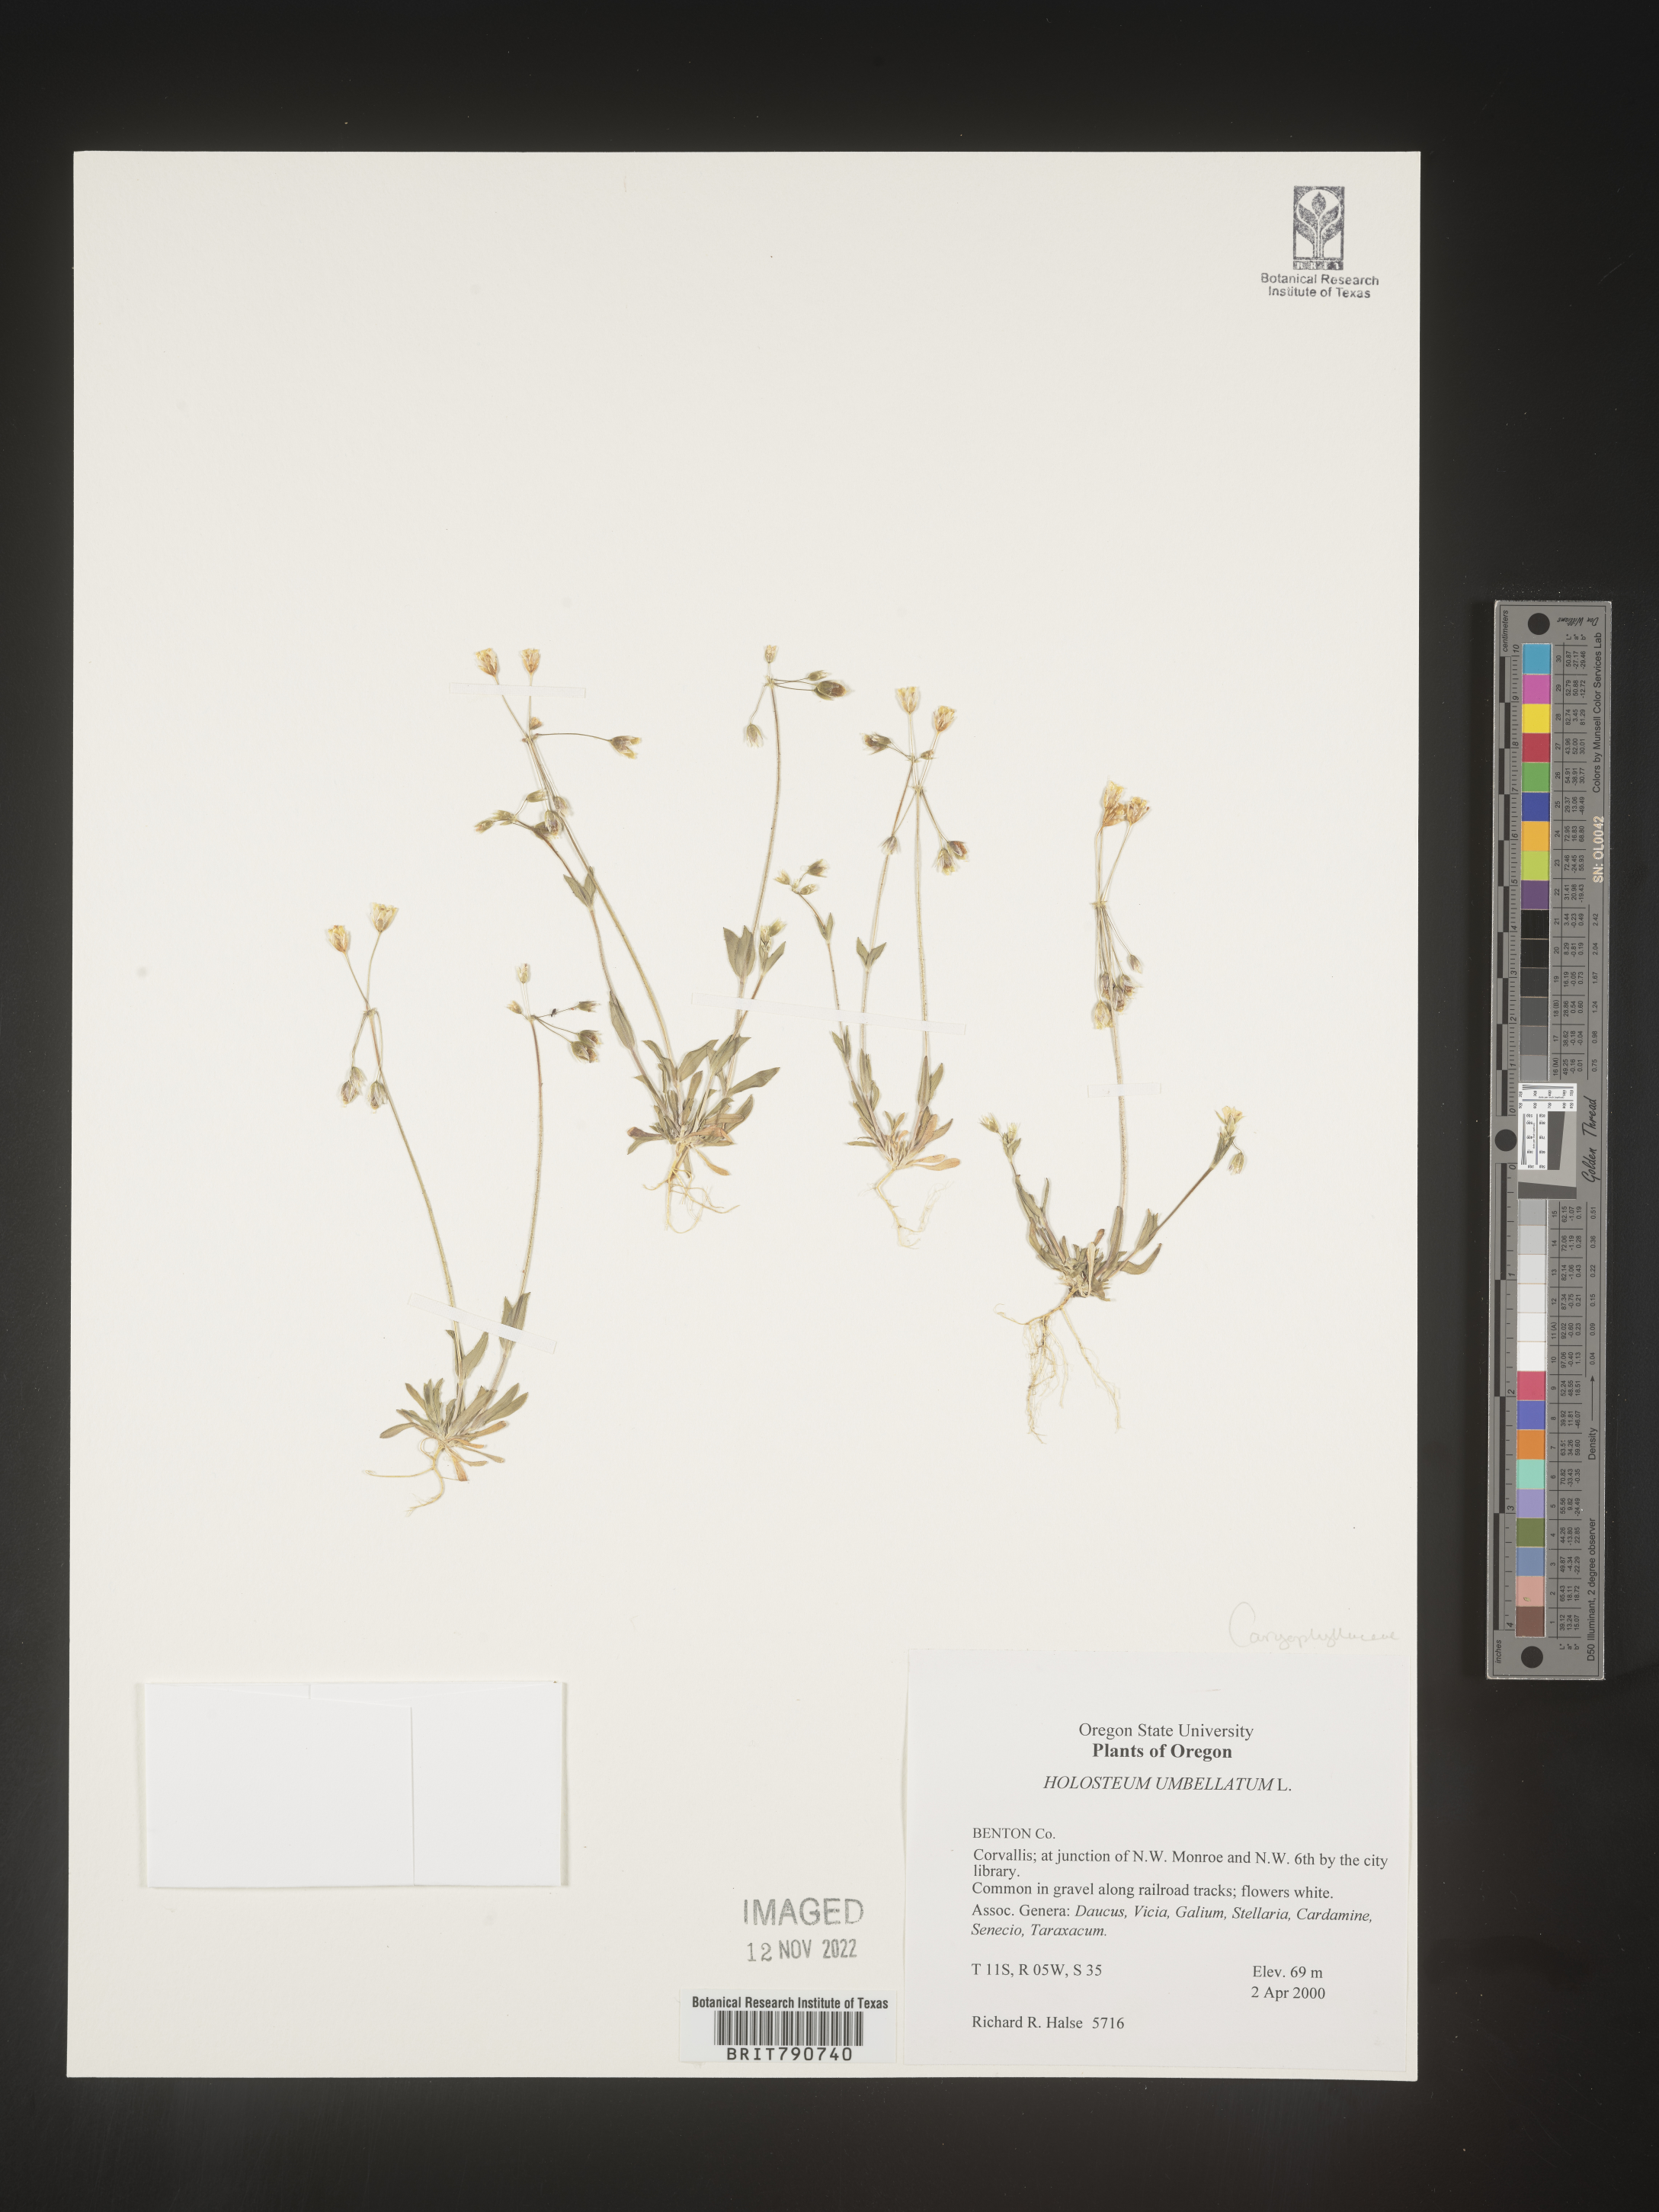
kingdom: Plantae
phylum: Tracheophyta
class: Magnoliopsida
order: Caryophyllales
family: Caryophyllaceae
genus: Holosteum
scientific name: Holosteum
